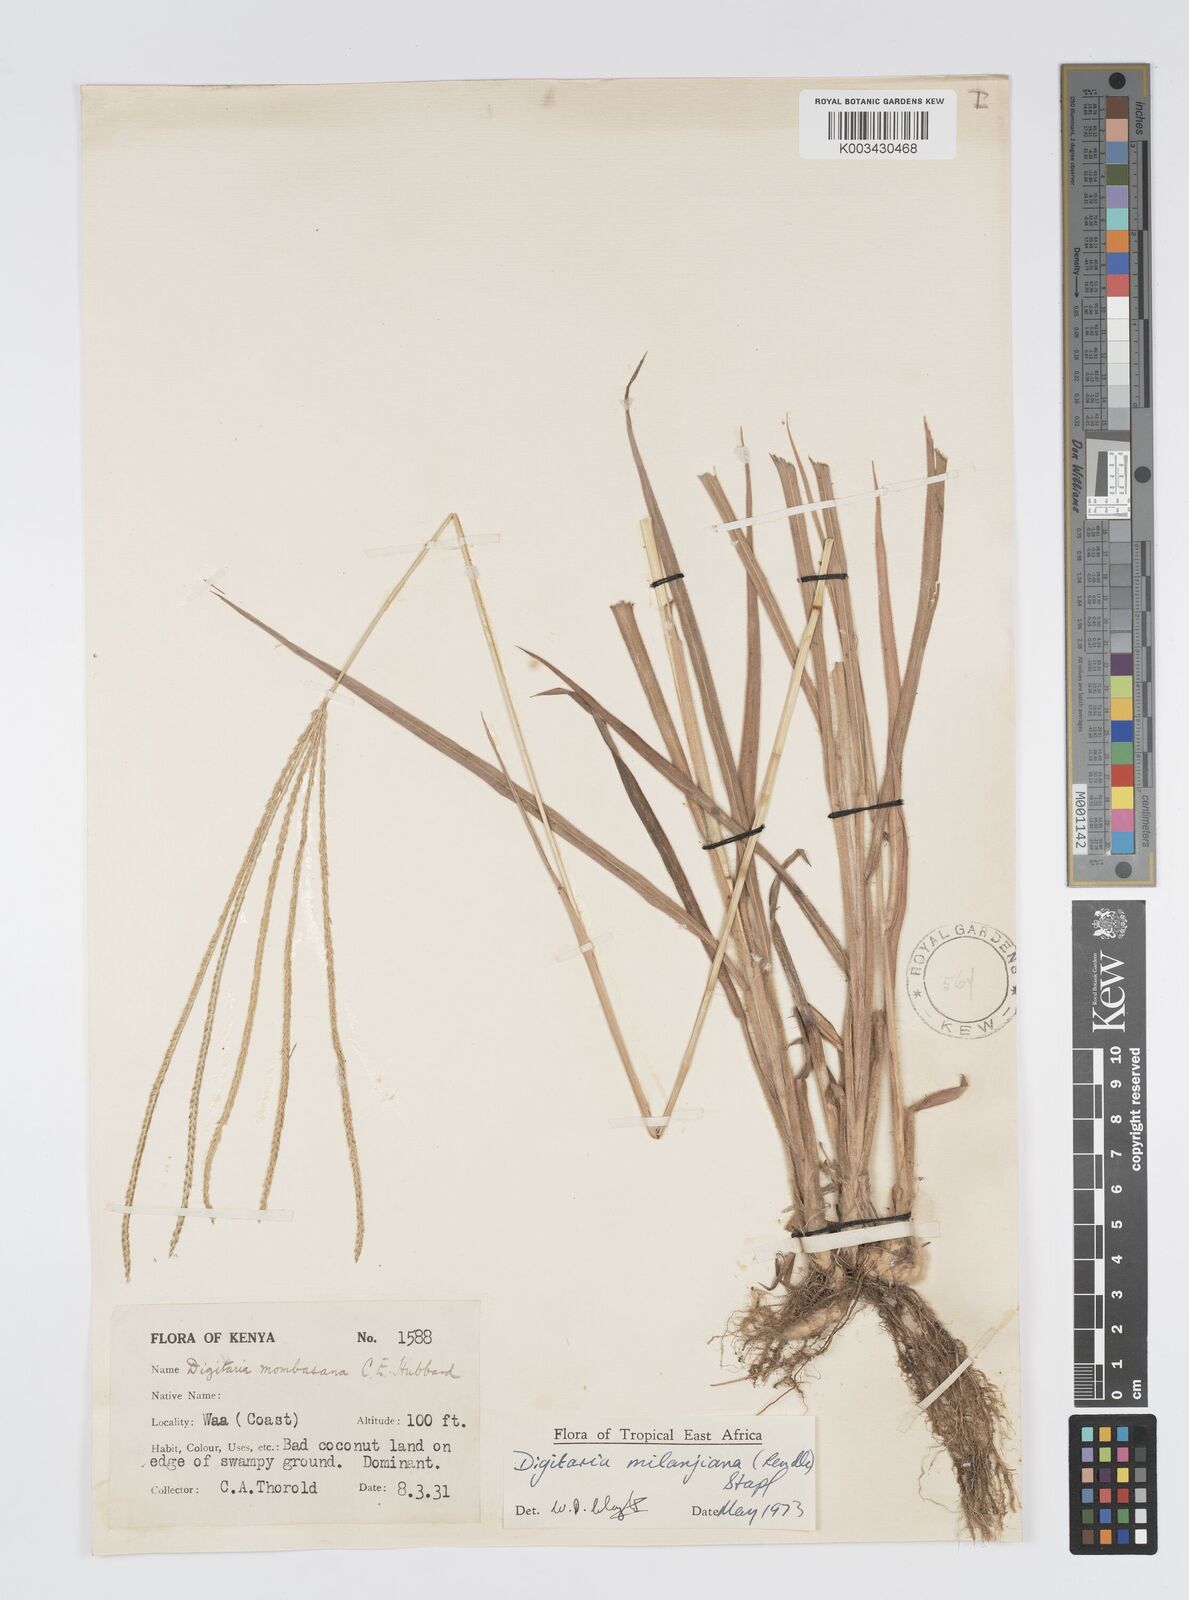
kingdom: Plantae
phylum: Tracheophyta
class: Liliopsida
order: Poales
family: Poaceae
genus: Digitaria
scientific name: Digitaria milanjiana
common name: Madagascar crabgrass
